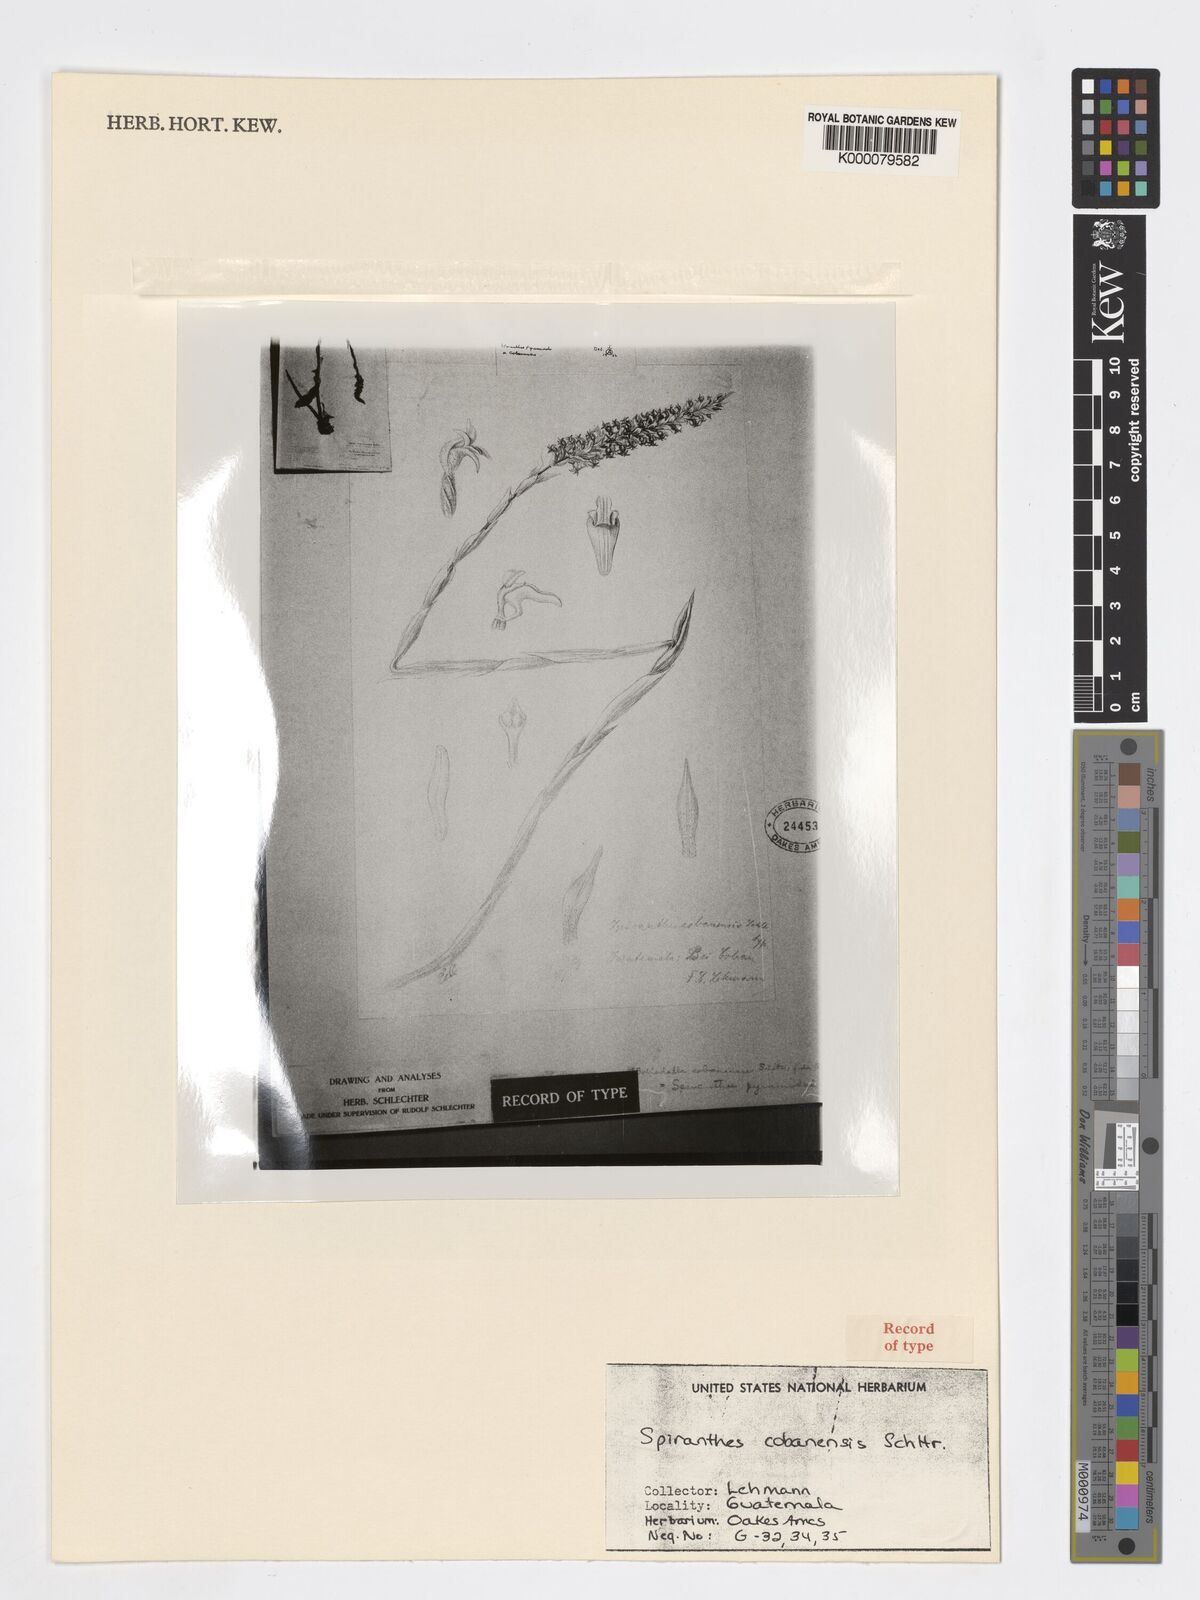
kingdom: Plantae
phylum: Tracheophyta
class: Liliopsida
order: Asparagales
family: Orchidaceae
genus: Aulosepalum
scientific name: Aulosepalum pyramidale
